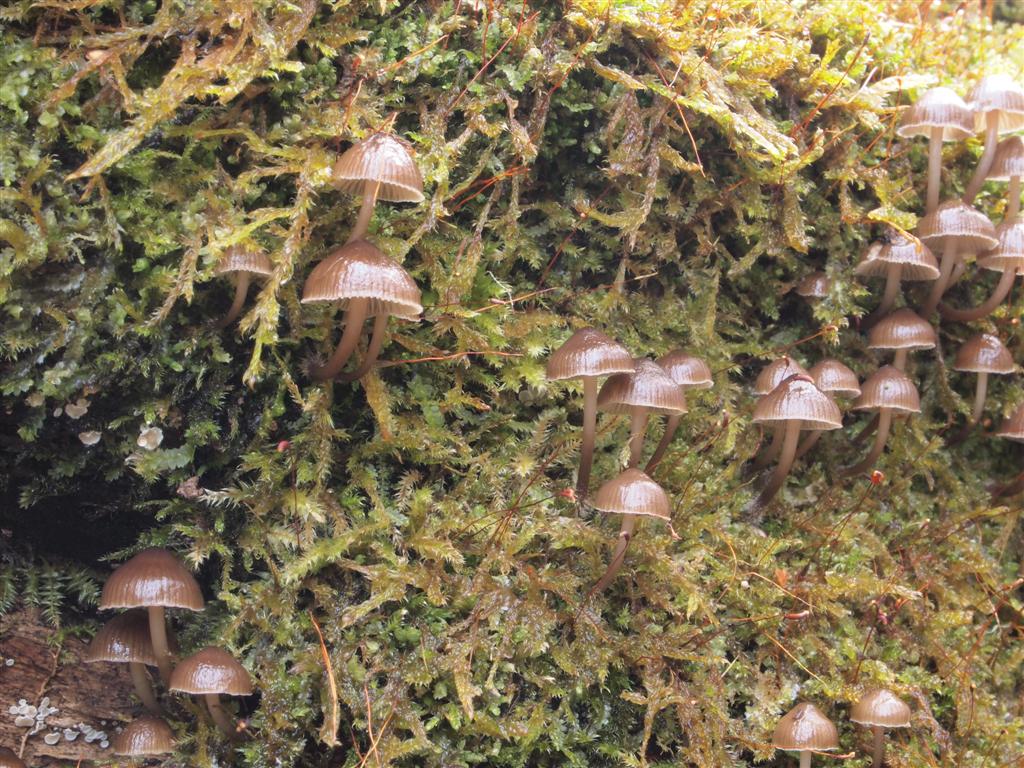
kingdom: Fungi
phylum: Basidiomycota
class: Agaricomycetes
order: Agaricales
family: Mycenaceae
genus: Mycena
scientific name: Mycena tintinnabulum
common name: vinter-huesvamp
